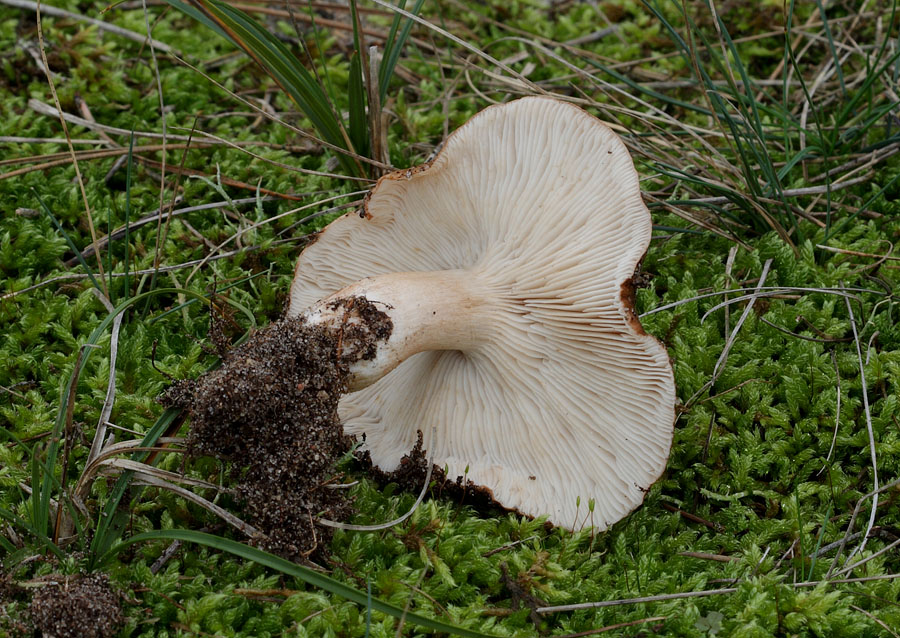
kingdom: Fungi
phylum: Basidiomycota
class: Agaricomycetes
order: Agaricales
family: Tricholomataceae
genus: Tricholoma
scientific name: Tricholoma albobrunneum
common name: kastanie-ridderhat
